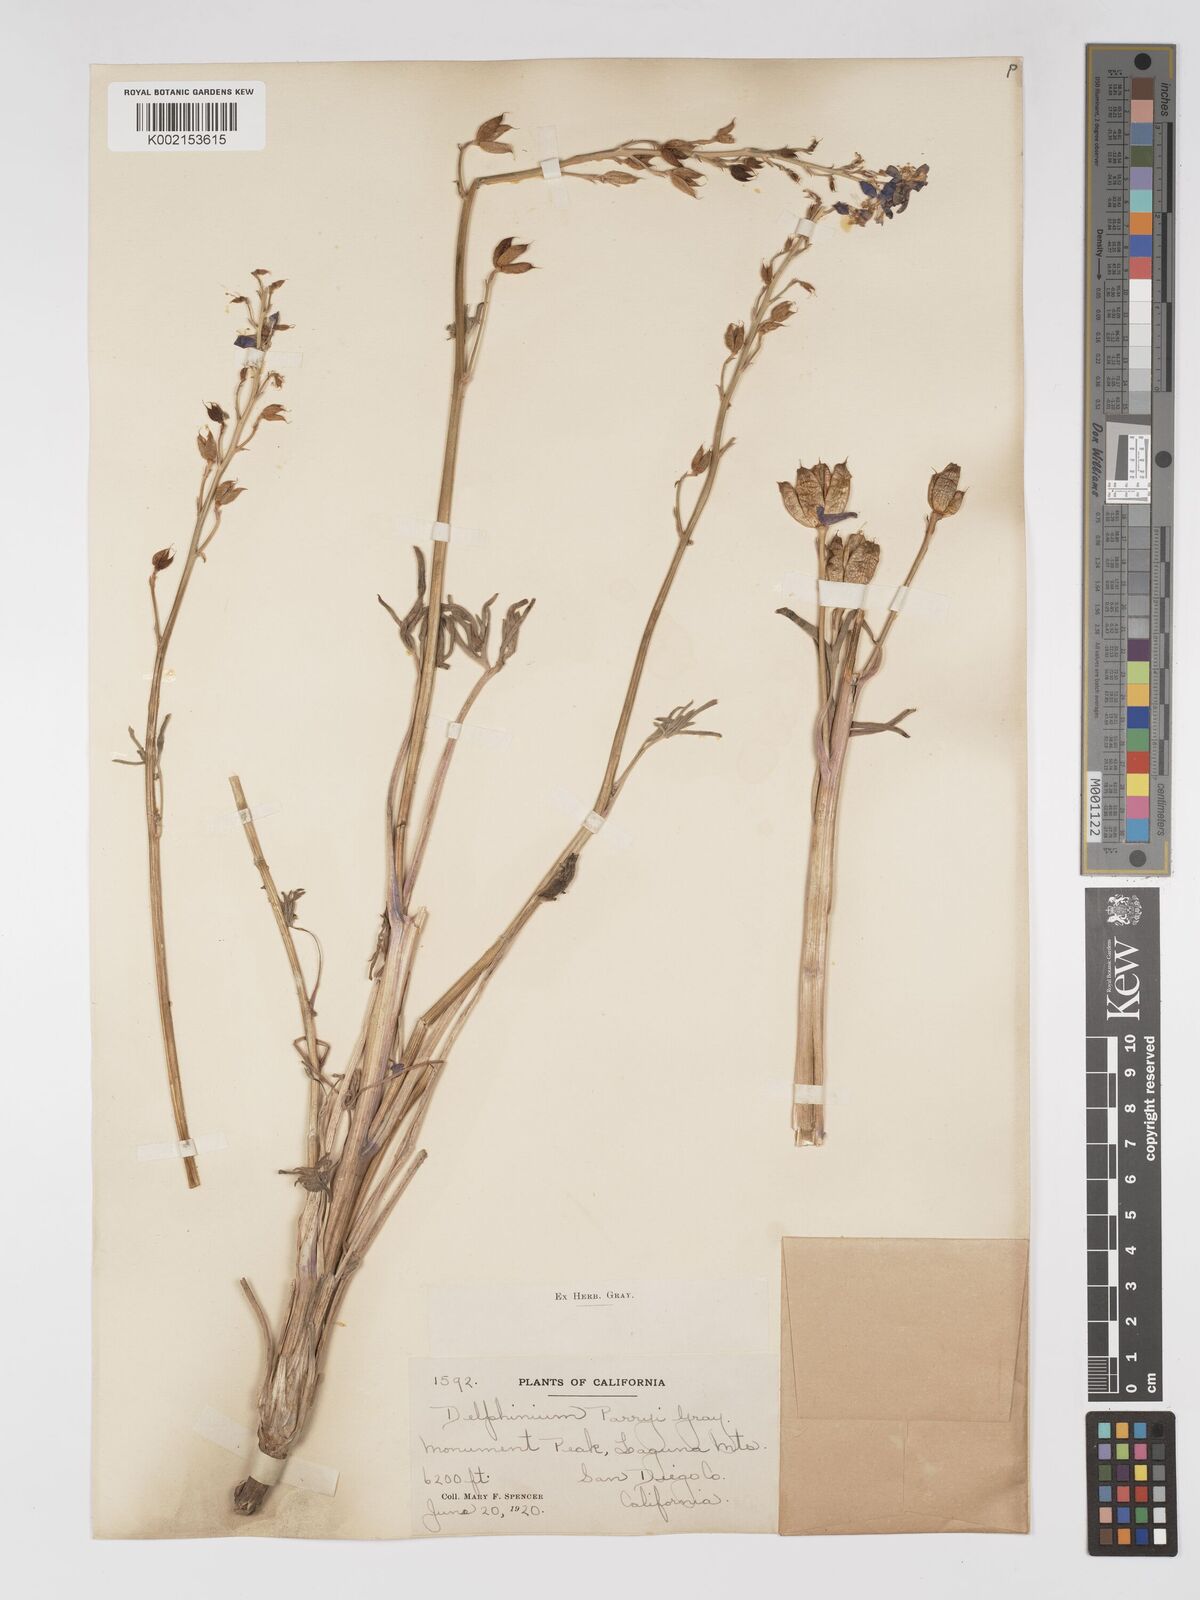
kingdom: Plantae
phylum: Tracheophyta
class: Magnoliopsida
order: Ranunculales
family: Ranunculaceae
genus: Delphinium
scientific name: Delphinium parryi
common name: Parry's larkspur
